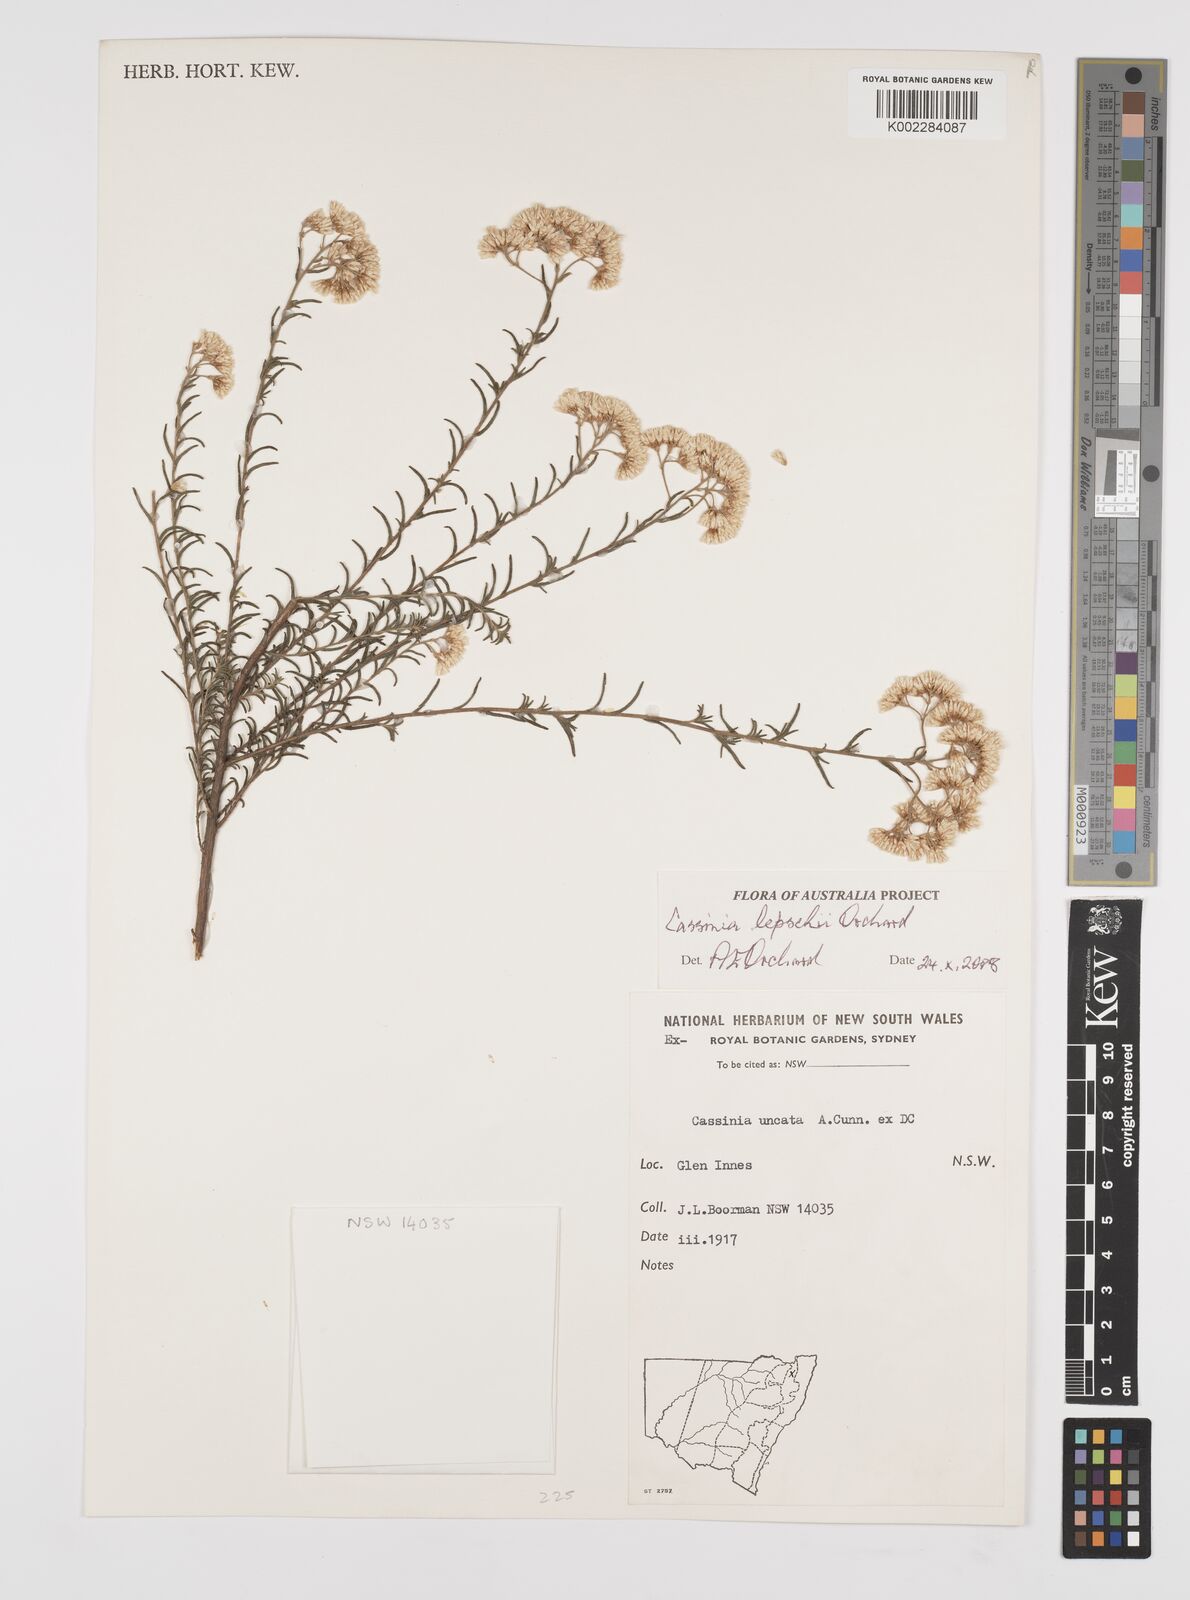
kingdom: Plantae
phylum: Tracheophyta
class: Magnoliopsida
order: Asterales
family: Asteraceae
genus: Cassinia
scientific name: Cassinia lepschii
